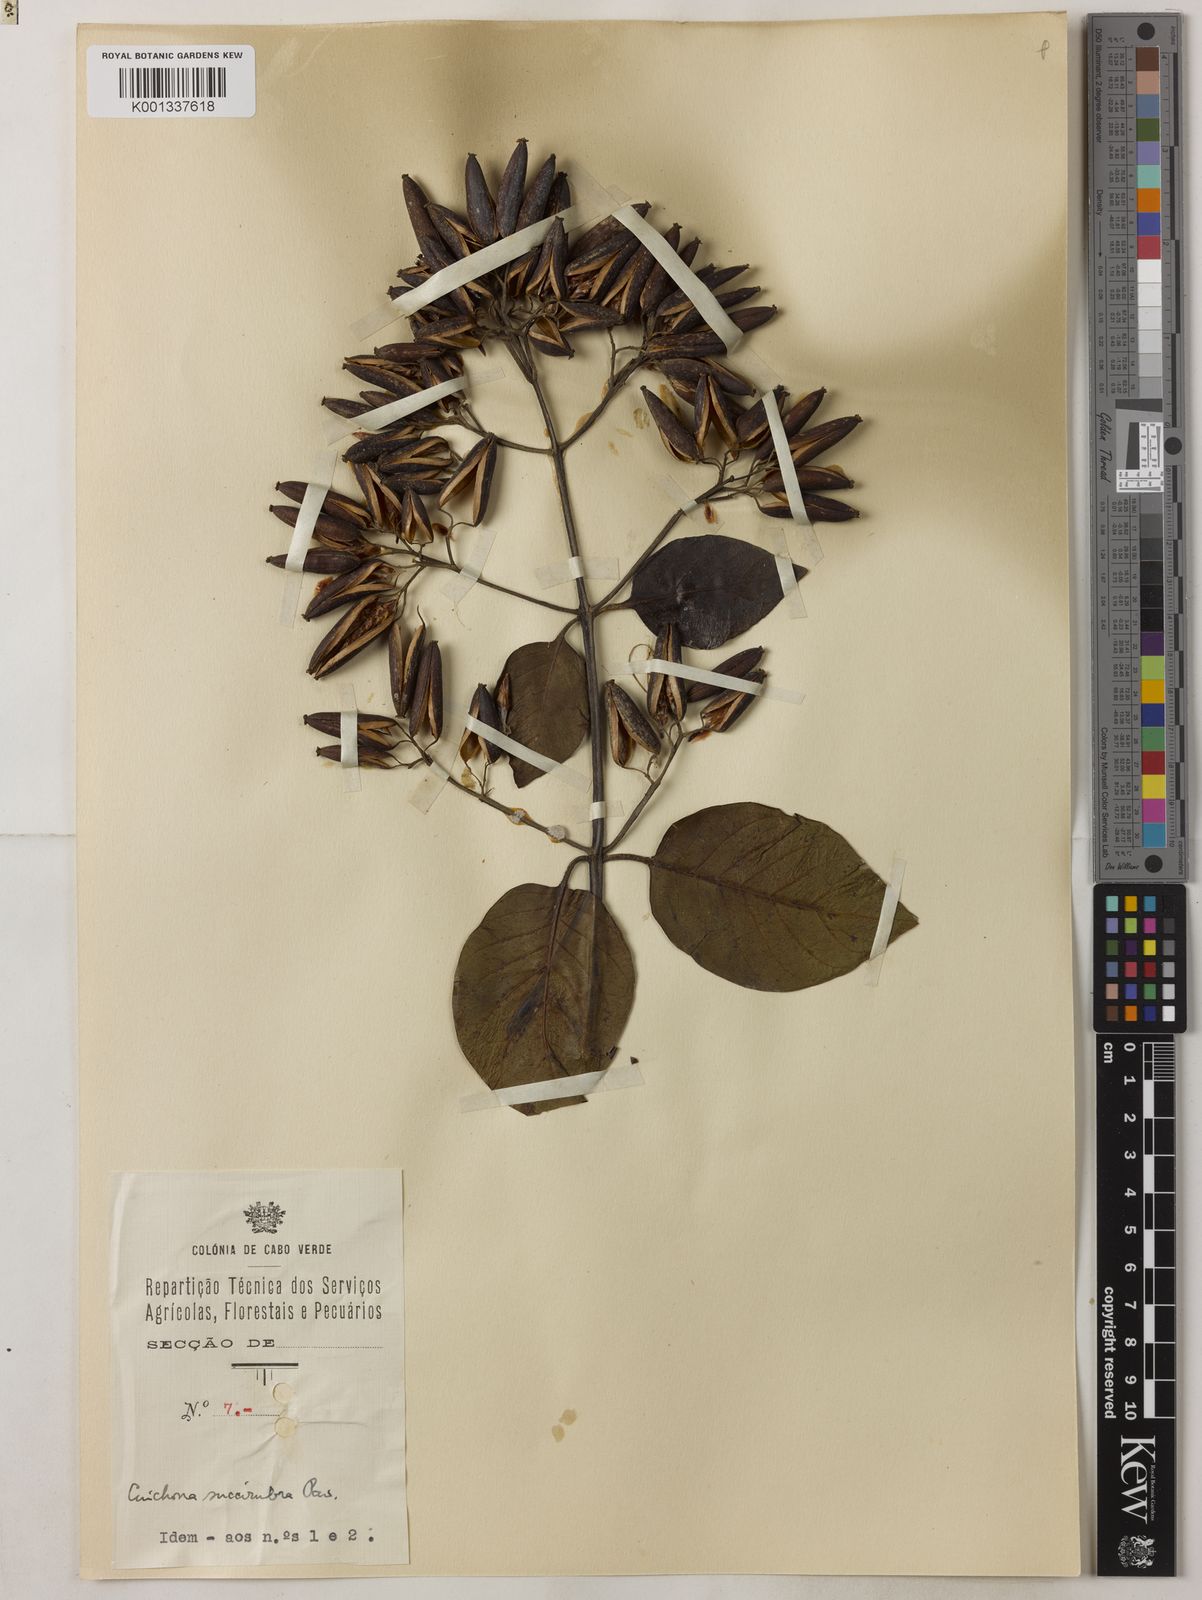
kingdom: Plantae
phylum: Tracheophyta
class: Magnoliopsida
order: Gentianales
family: Rubiaceae
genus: Cinchona
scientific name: Cinchona pubescens
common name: Quinine
